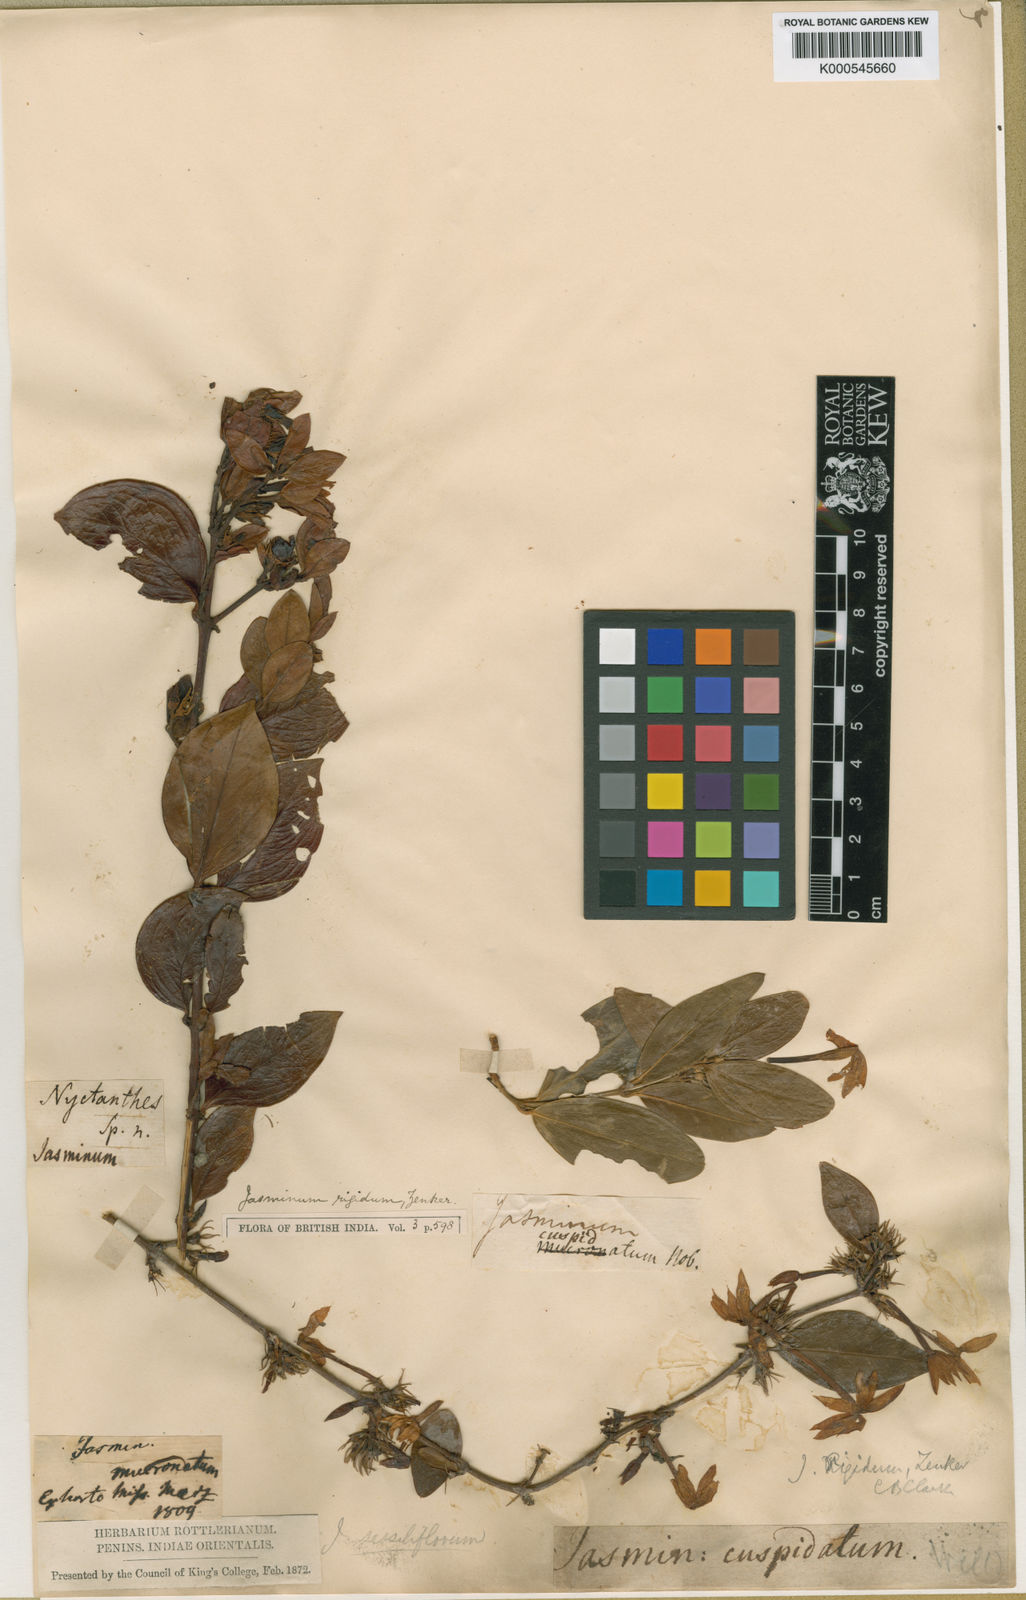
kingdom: Plantae
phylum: Tracheophyta
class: Magnoliopsida
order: Lamiales
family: Oleaceae
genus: Jasminum
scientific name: Jasminum cuspidatum
